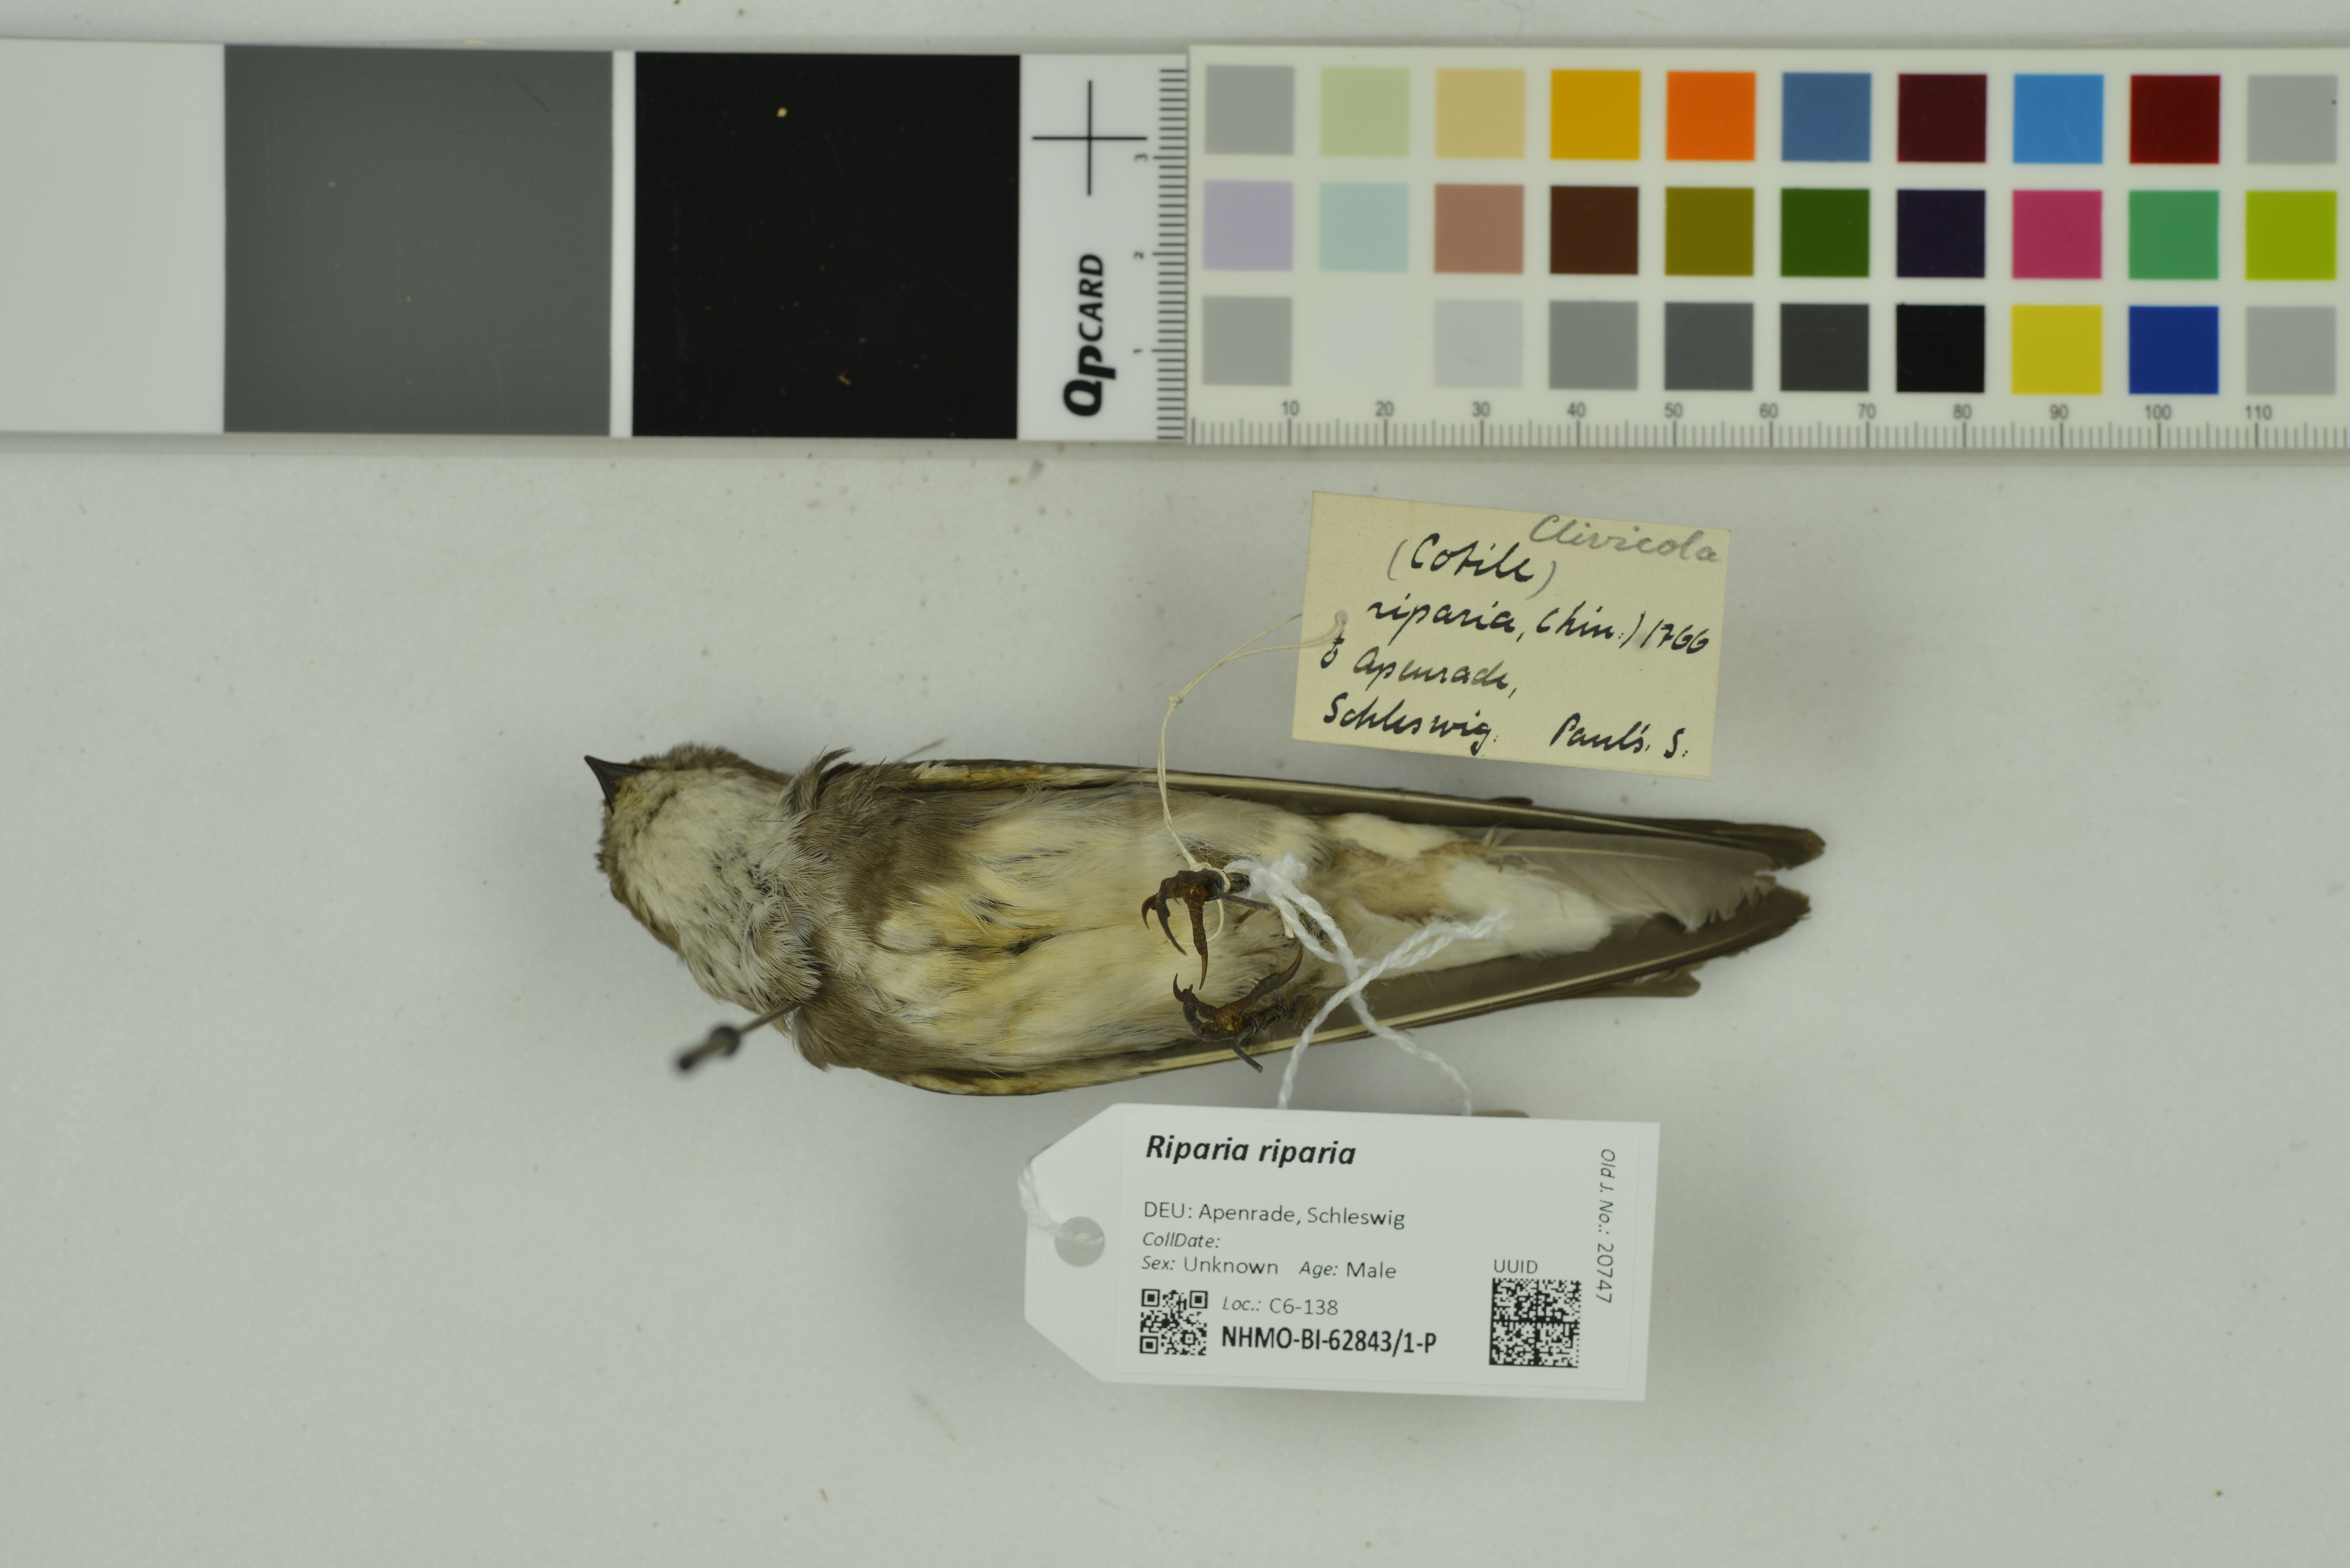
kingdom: Animalia
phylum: Chordata
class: Aves
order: Passeriformes
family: Hirundinidae
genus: Riparia
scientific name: Riparia riparia
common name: Sand martin
